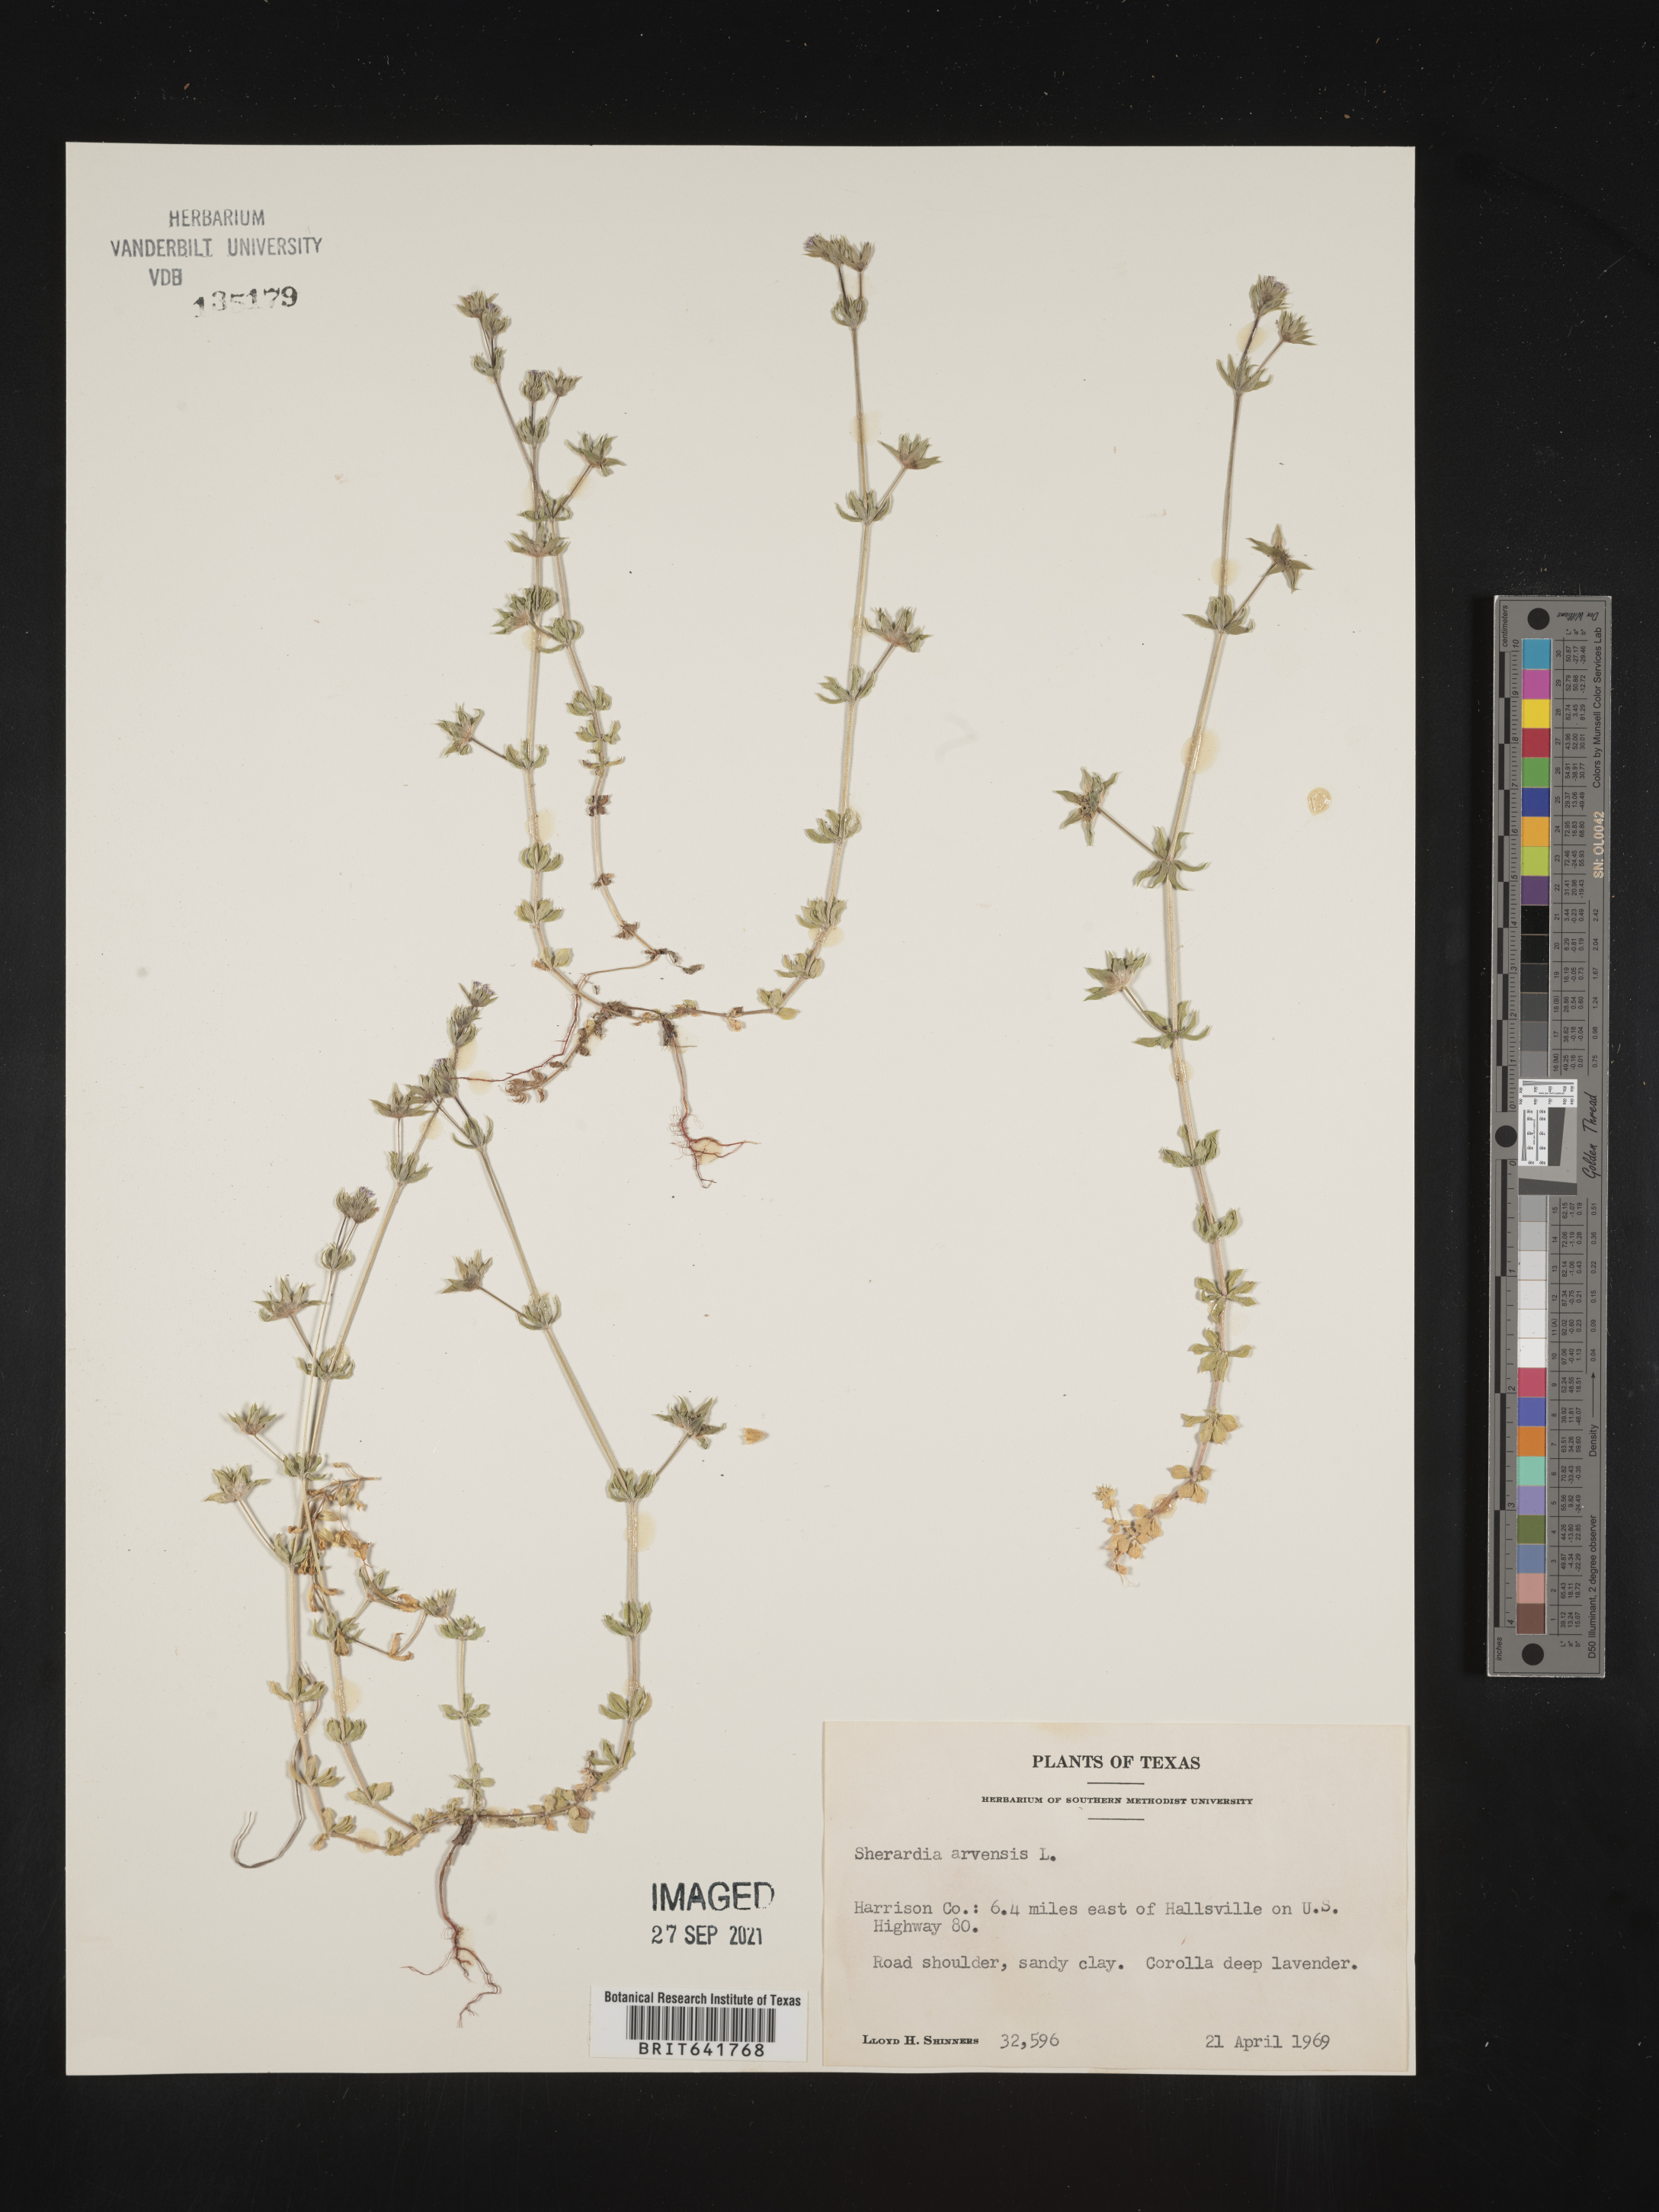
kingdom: Plantae
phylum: Tracheophyta
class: Magnoliopsida
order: Gentianales
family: Rubiaceae
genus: Sherardia
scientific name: Sherardia arvensis
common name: Field madder
